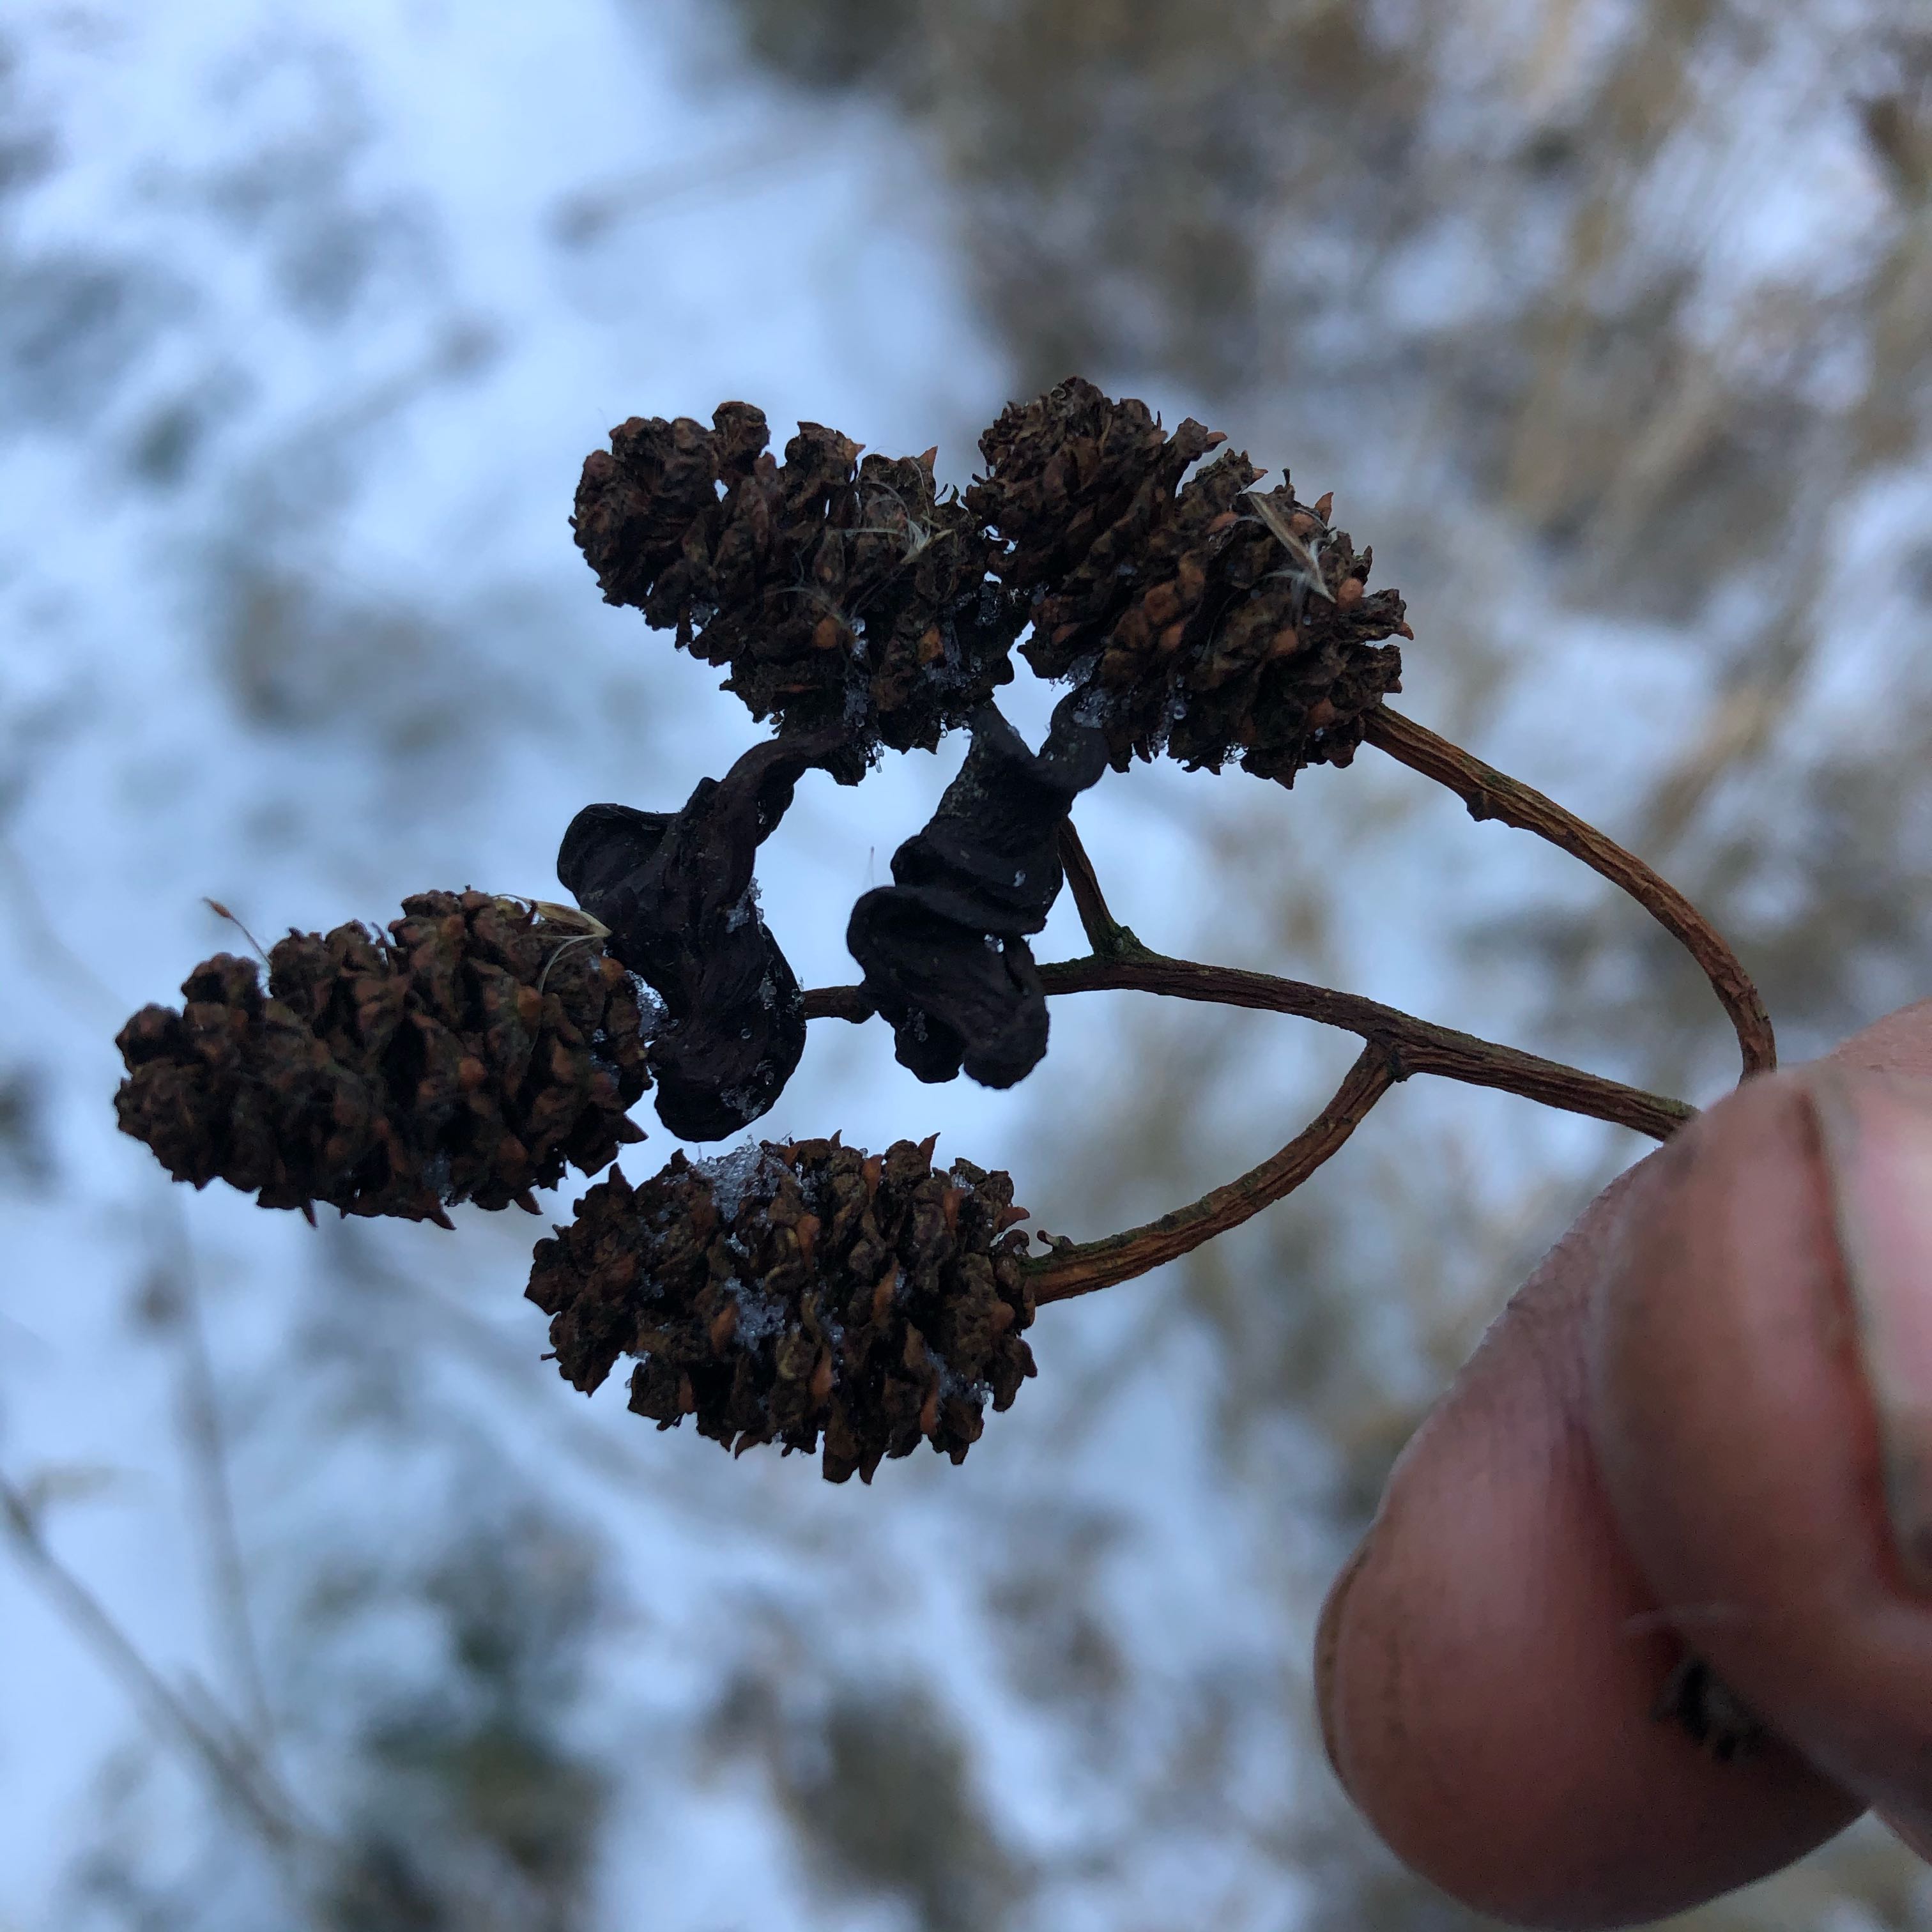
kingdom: Fungi
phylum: Ascomycota
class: Taphrinomycetes
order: Taphrinales
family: Taphrinaceae
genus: Taphrina
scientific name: Taphrina alni
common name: Alder tongue
